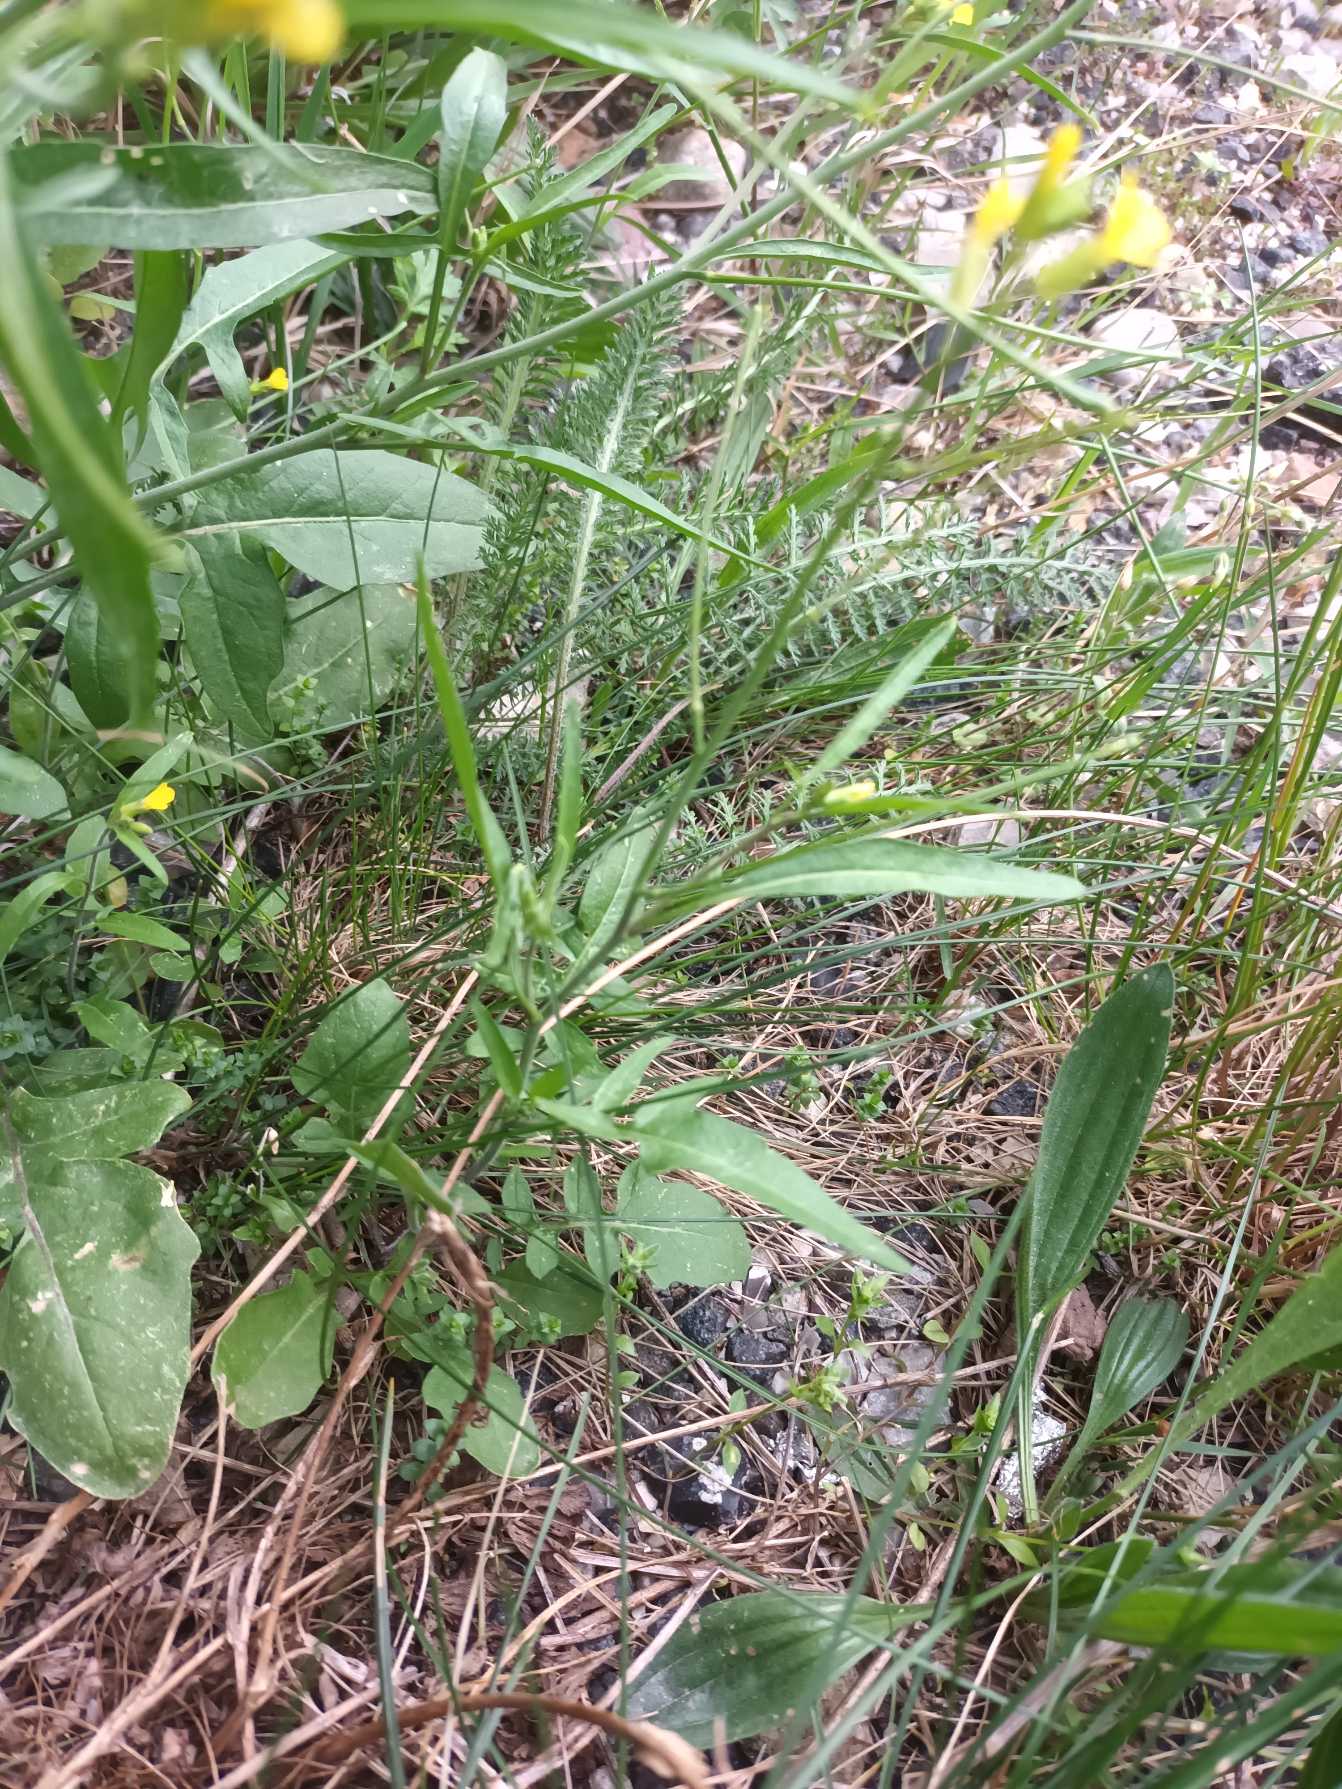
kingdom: Plantae
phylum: Tracheophyta
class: Magnoliopsida
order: Brassicales
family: Brassicaceae
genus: Sisymbrium
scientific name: Sisymbrium orientale
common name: Orientalsk vejsennep
